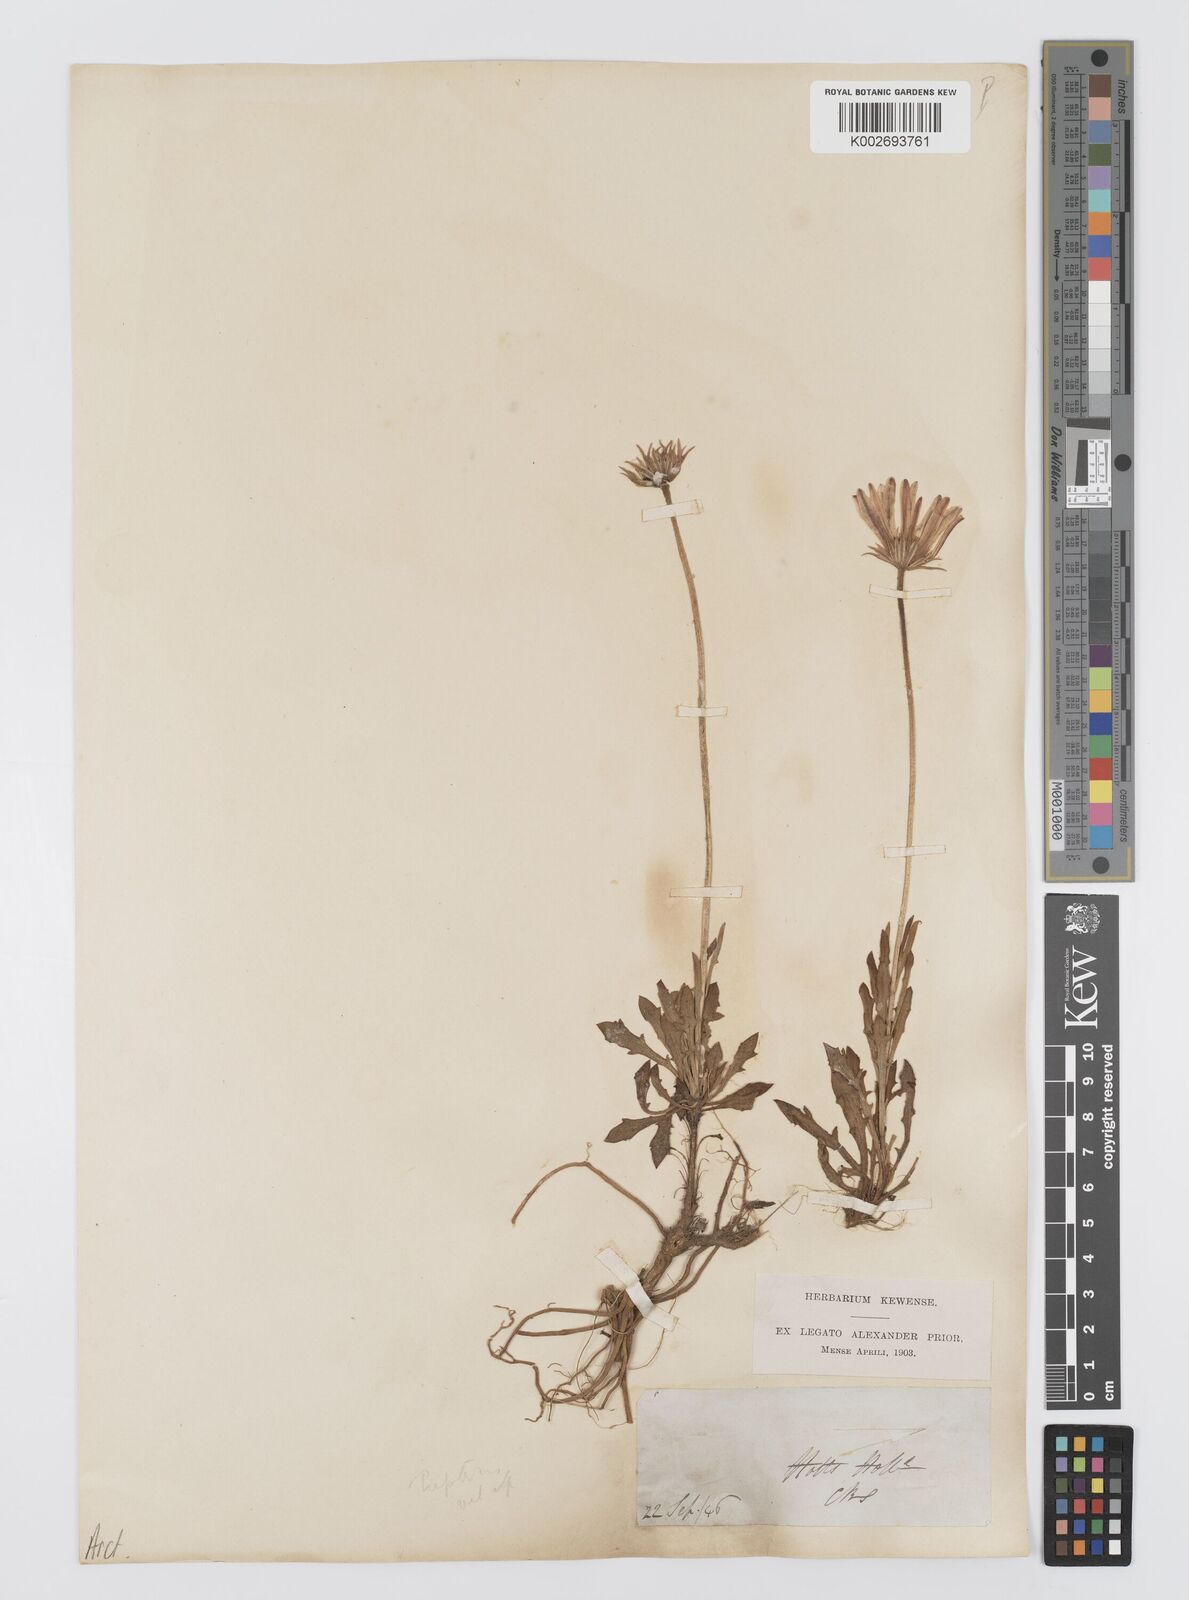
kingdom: Plantae
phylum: Tracheophyta
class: Magnoliopsida
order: Asterales
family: Asteraceae
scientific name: Asteraceae
